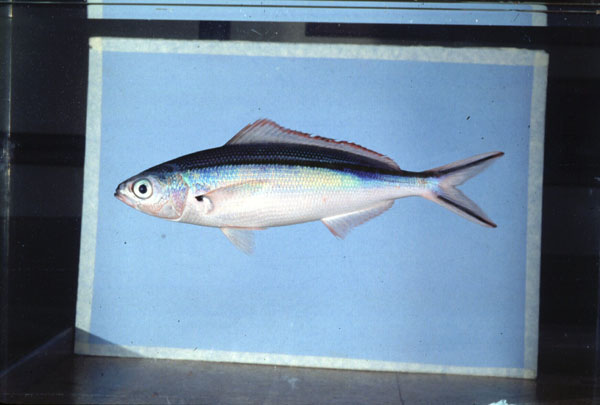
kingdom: Animalia
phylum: Chordata
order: Perciformes
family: Caesionidae
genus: Pterocaesio
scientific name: Pterocaesio tile
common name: Dark-banded fusilier
